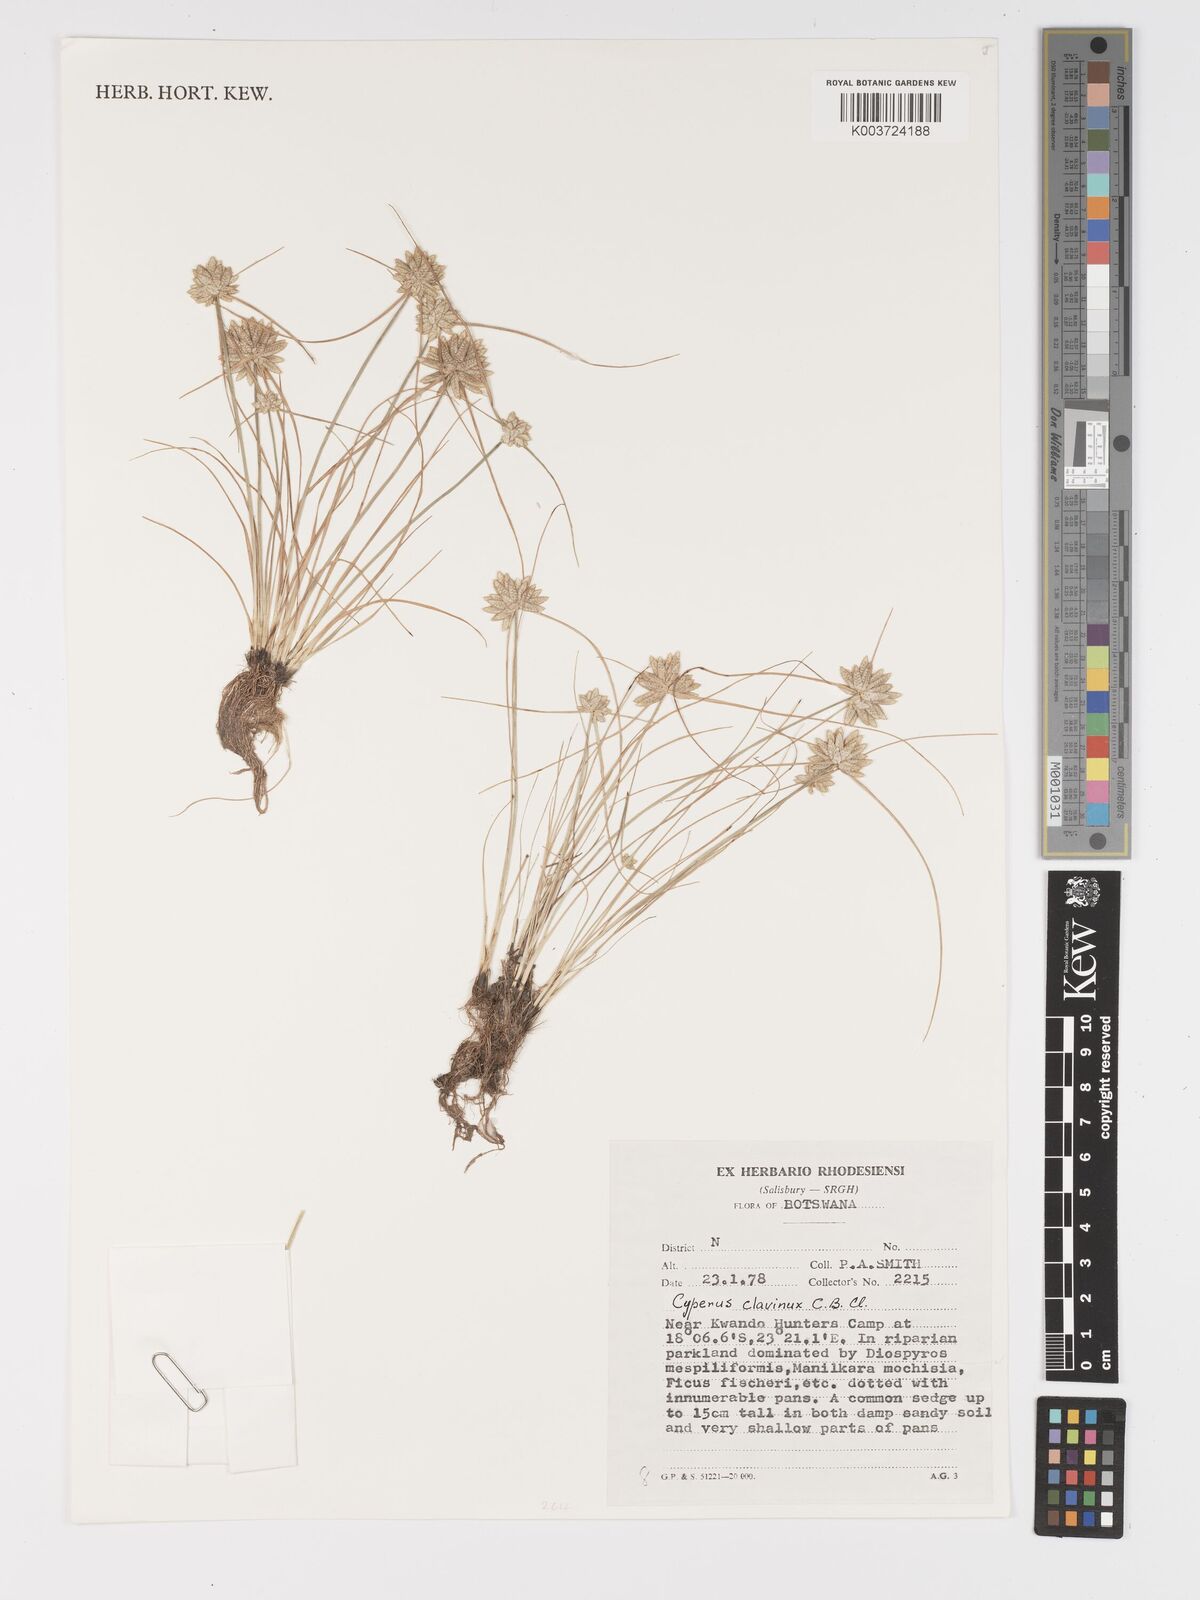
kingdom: Plantae
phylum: Tracheophyta
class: Liliopsida
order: Poales
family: Cyperaceae
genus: Cyperus
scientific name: Cyperus clavinux
